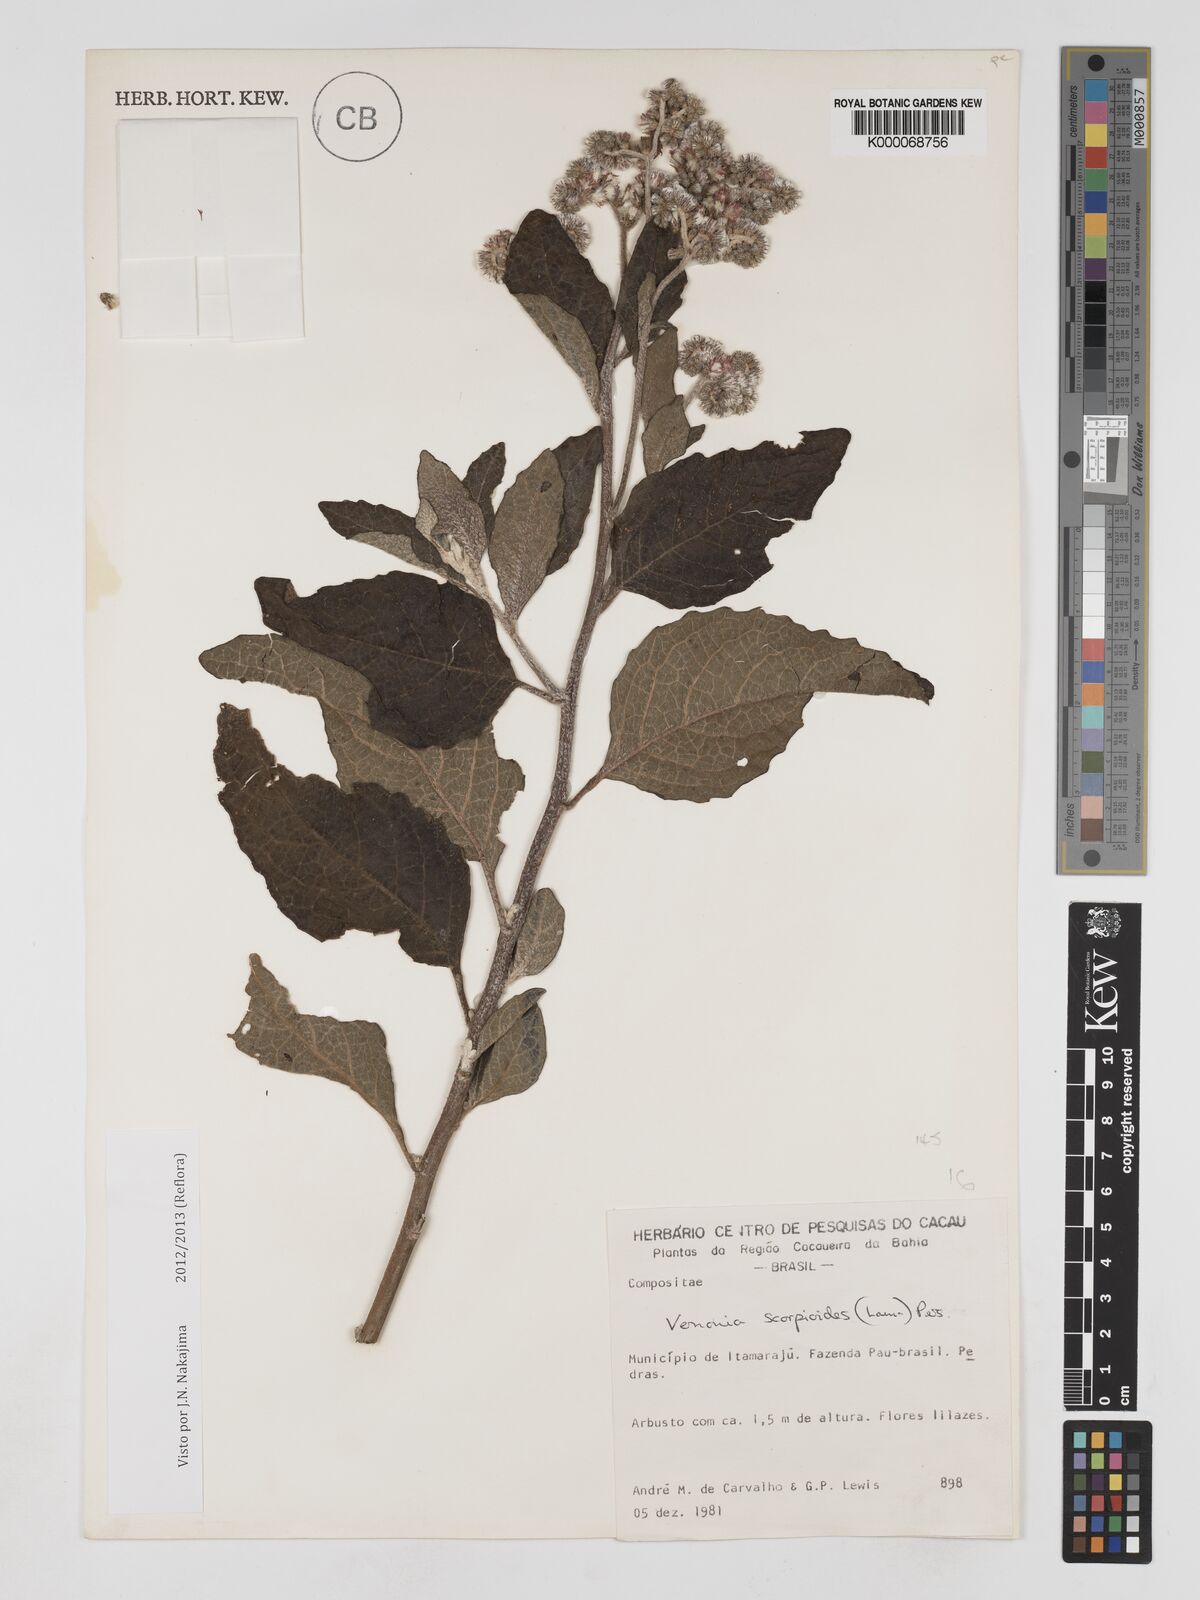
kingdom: Plantae
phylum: Tracheophyta
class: Magnoliopsida
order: Asterales
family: Asteraceae
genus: Cyrtocymura
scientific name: Cyrtocymura scorpioides
